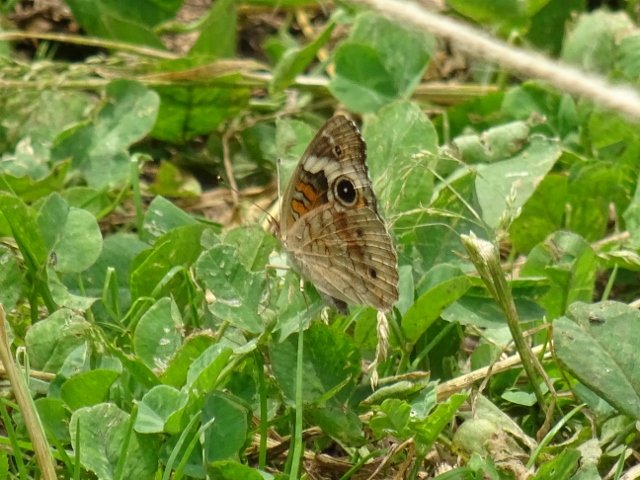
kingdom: Animalia
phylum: Arthropoda
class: Insecta
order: Lepidoptera
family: Nymphalidae
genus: Junonia
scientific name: Junonia coenia
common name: Common Buckeye
